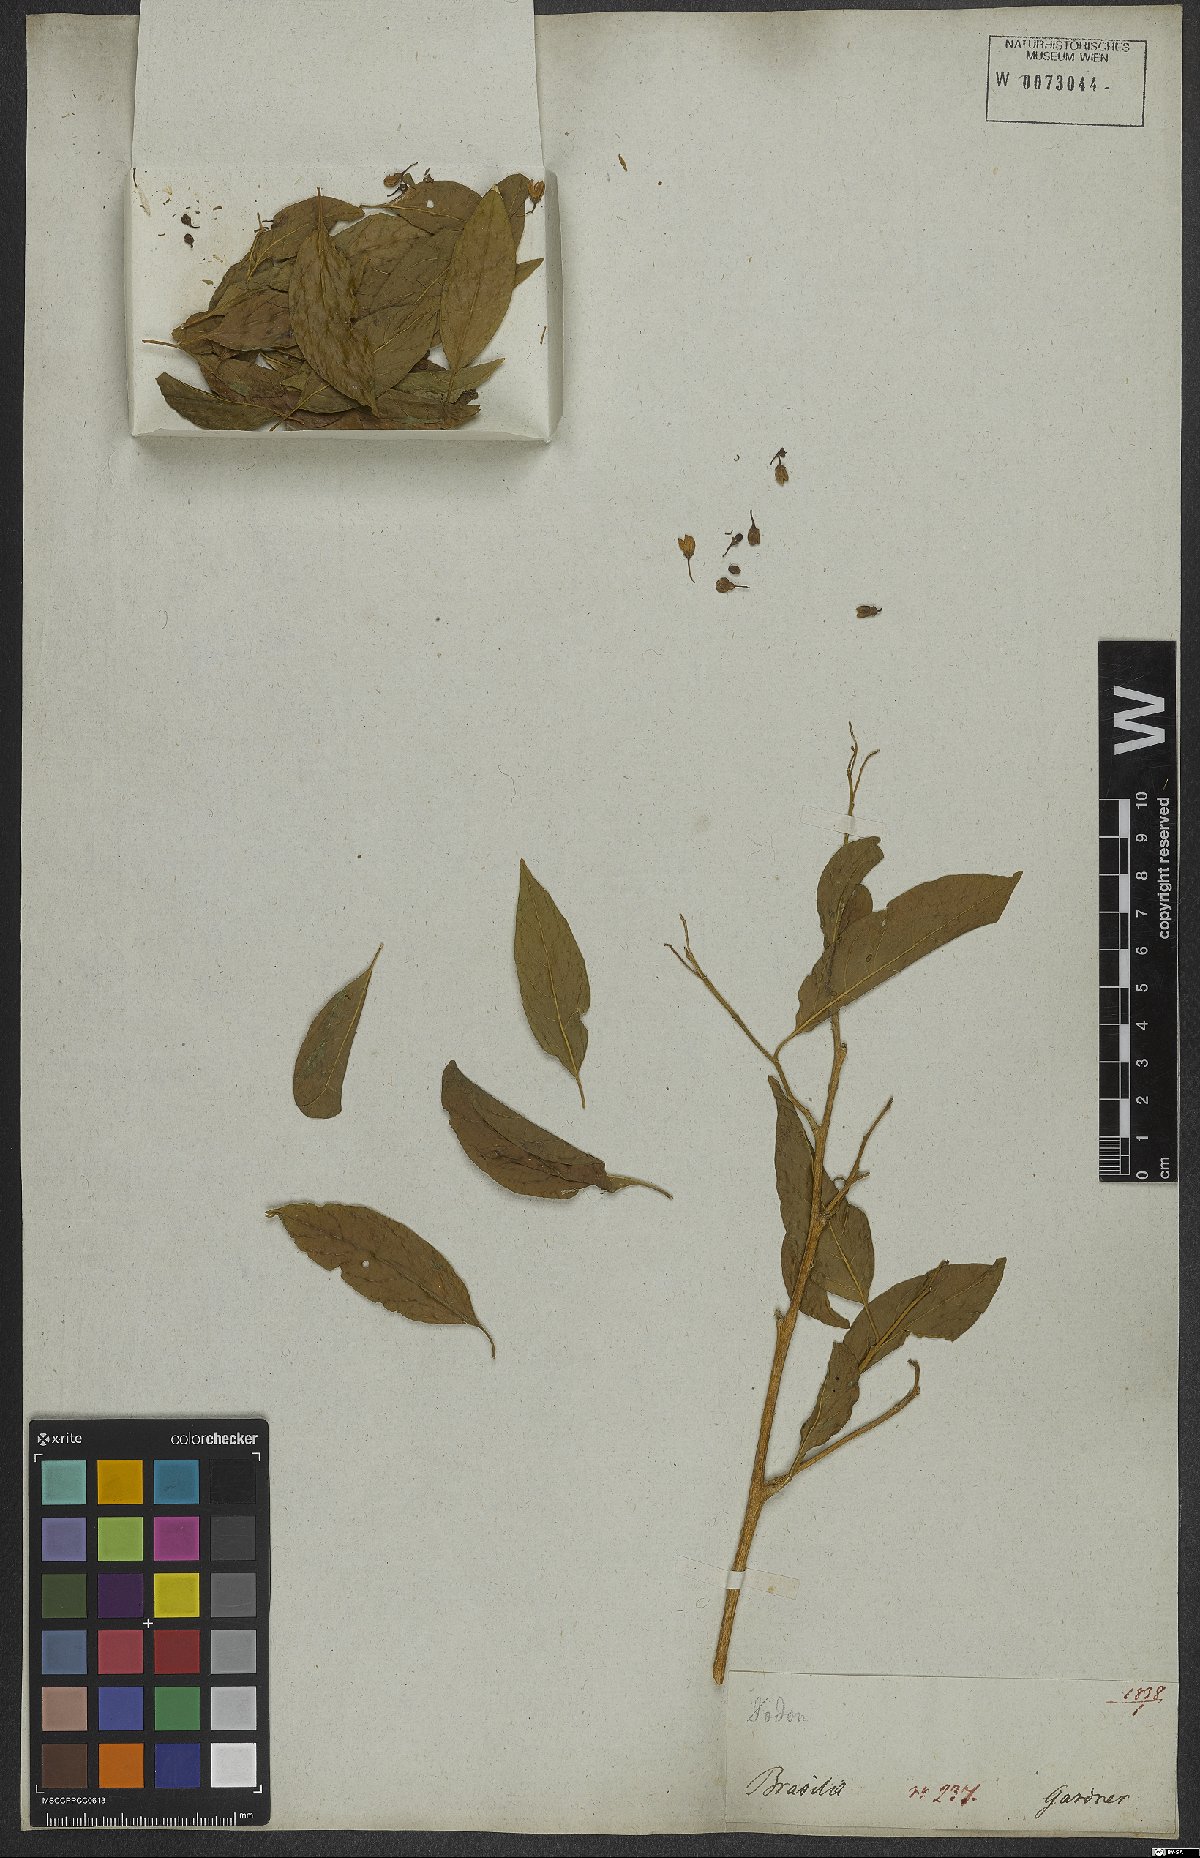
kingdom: Plantae
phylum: Tracheophyta
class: Magnoliopsida
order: Solanales
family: Solanaceae
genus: Solanum
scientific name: Solanum campaniforme
